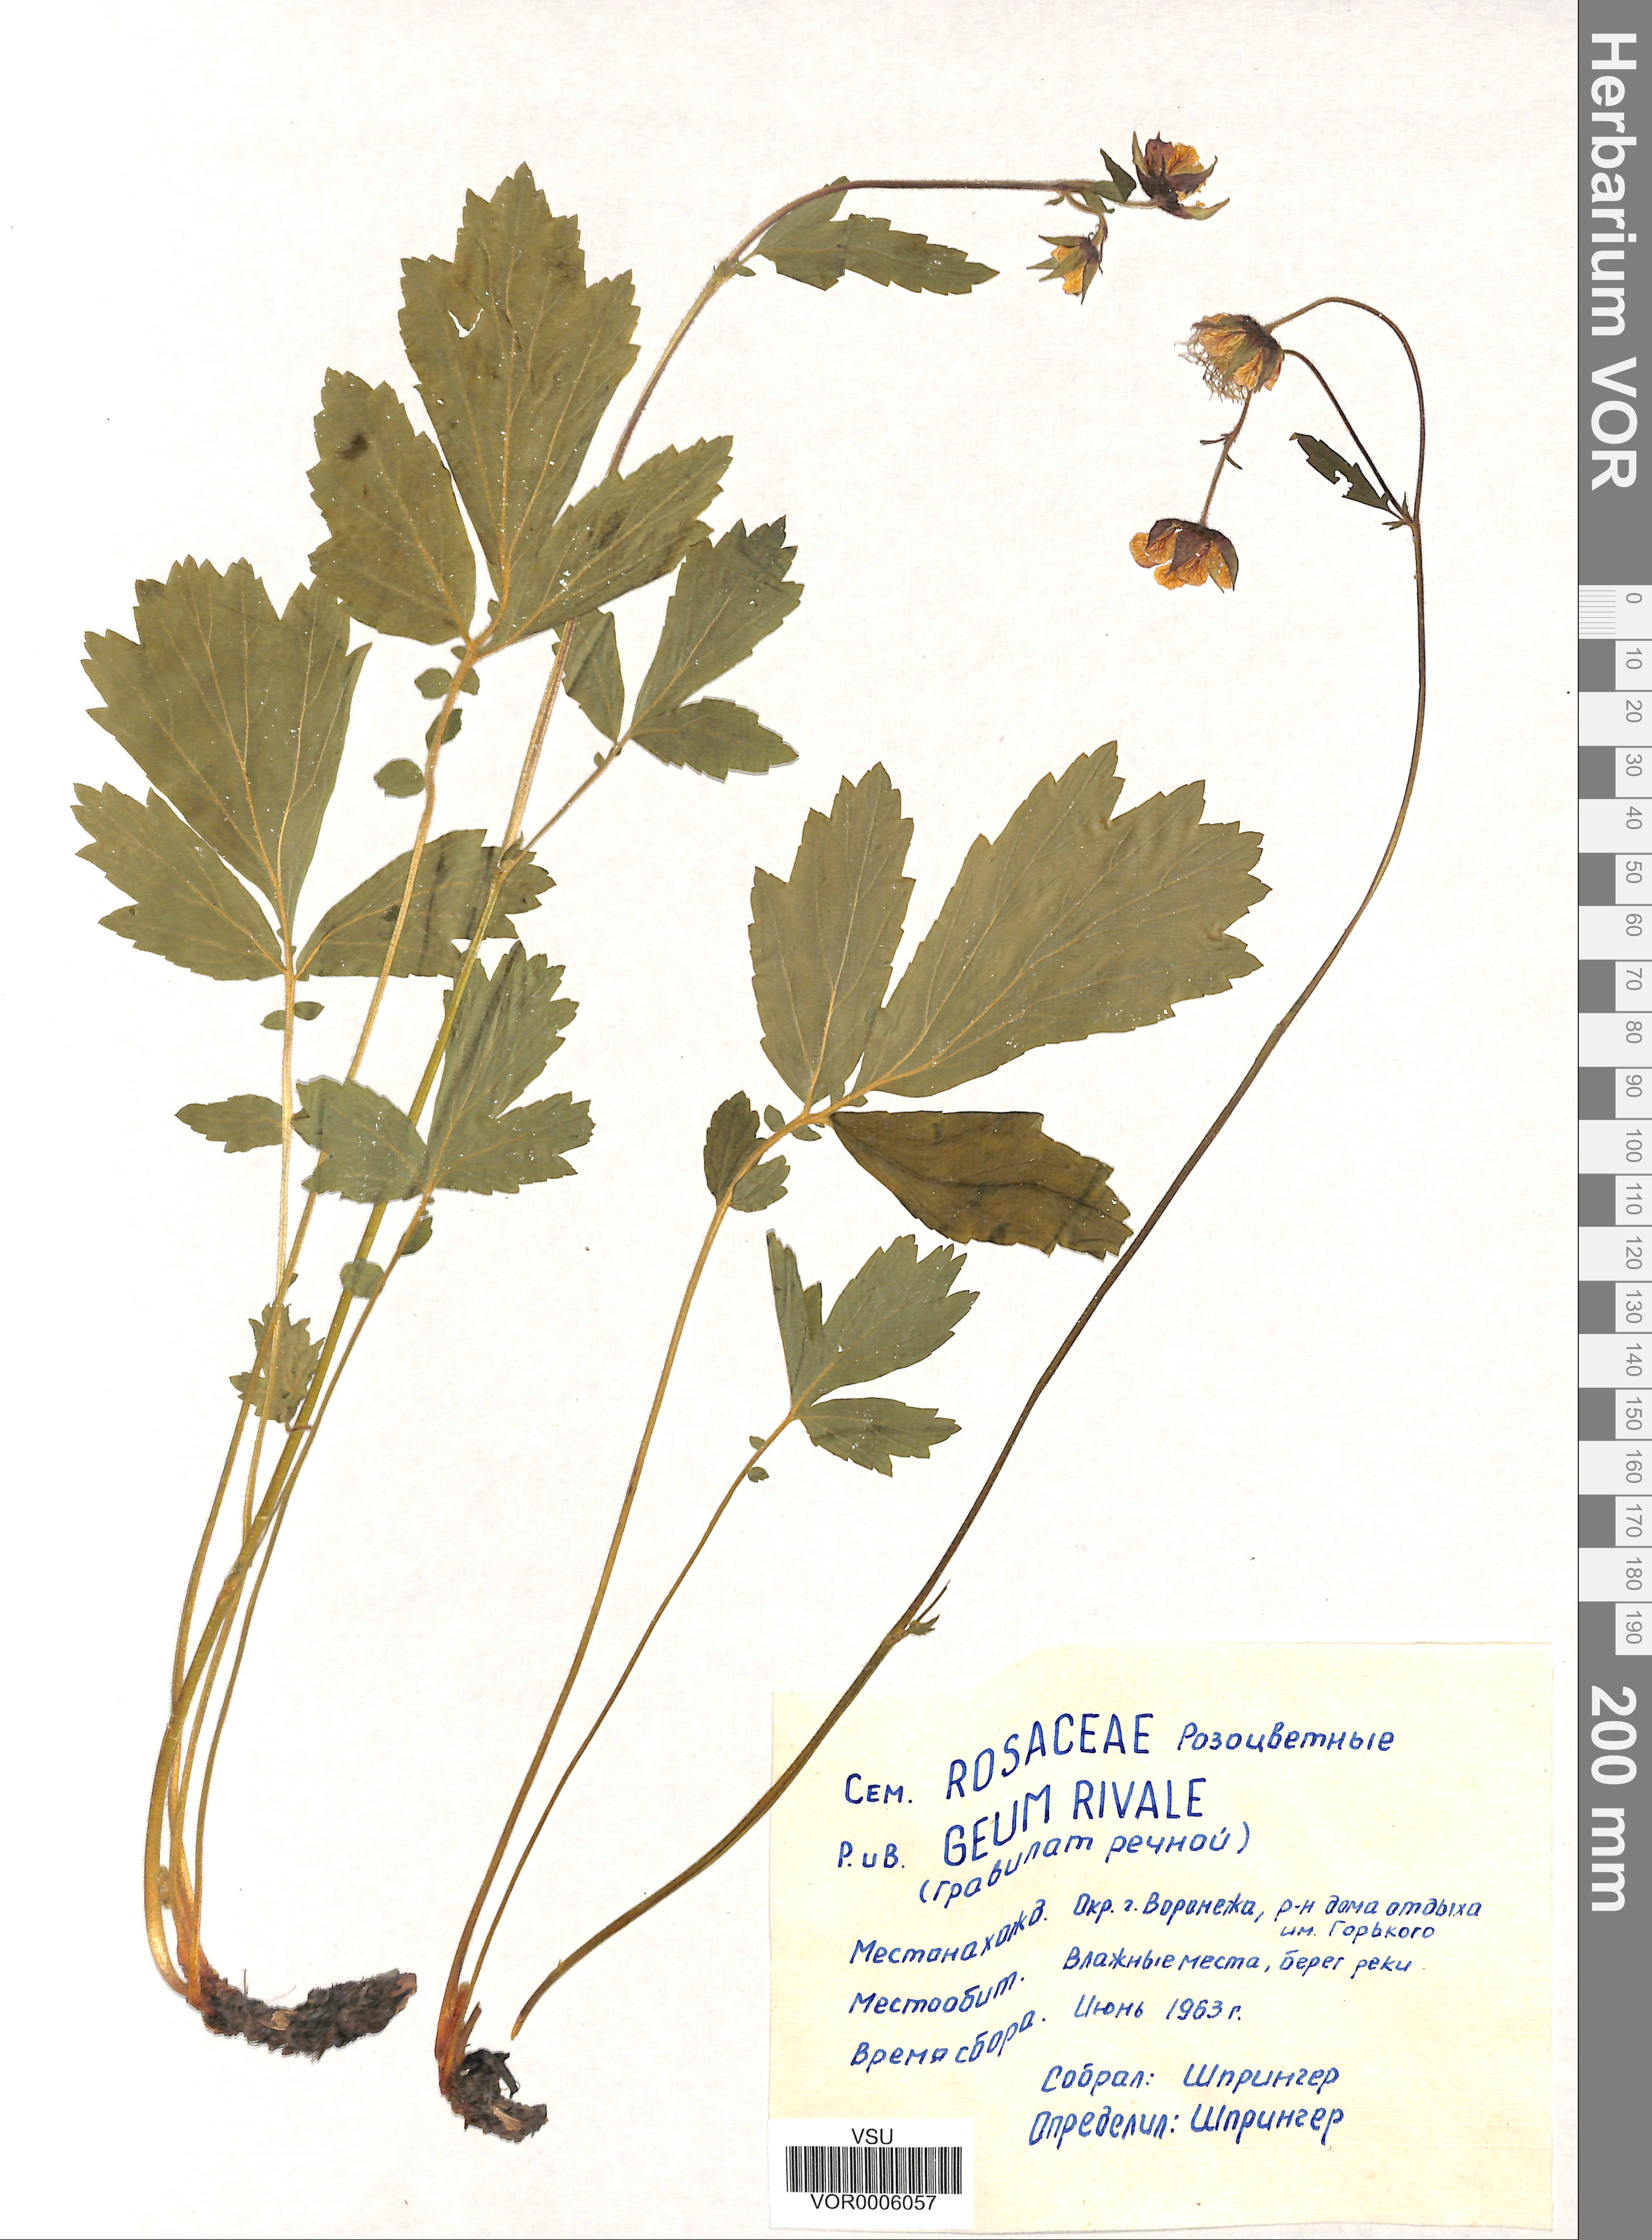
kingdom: Plantae
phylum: Tracheophyta
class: Magnoliopsida
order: Rosales
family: Rosaceae
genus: Geum
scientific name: Geum rivale
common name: Water avens
